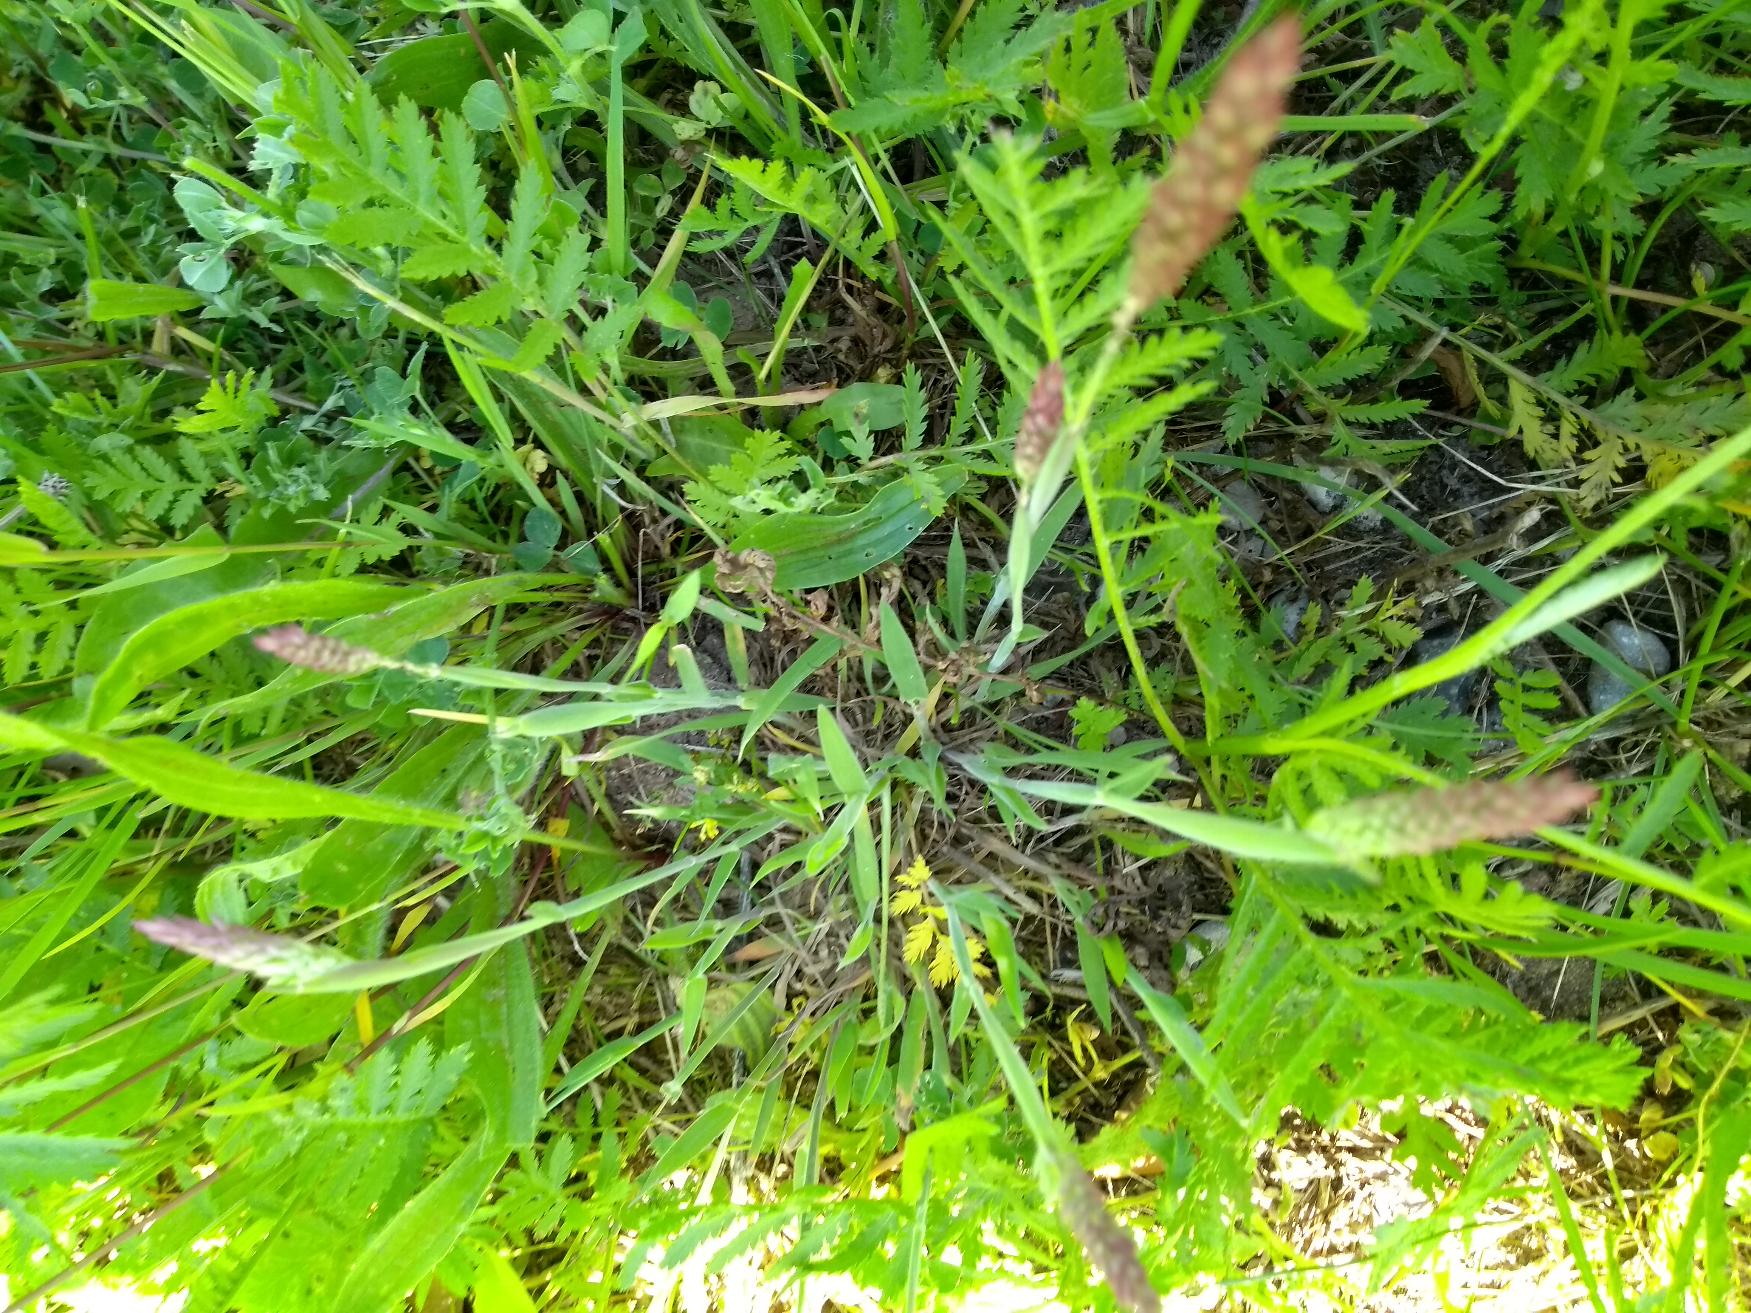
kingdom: Plantae
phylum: Tracheophyta
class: Liliopsida
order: Poales
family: Poaceae
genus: Holcus
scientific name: Holcus lanatus
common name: Fløjlsgræs
